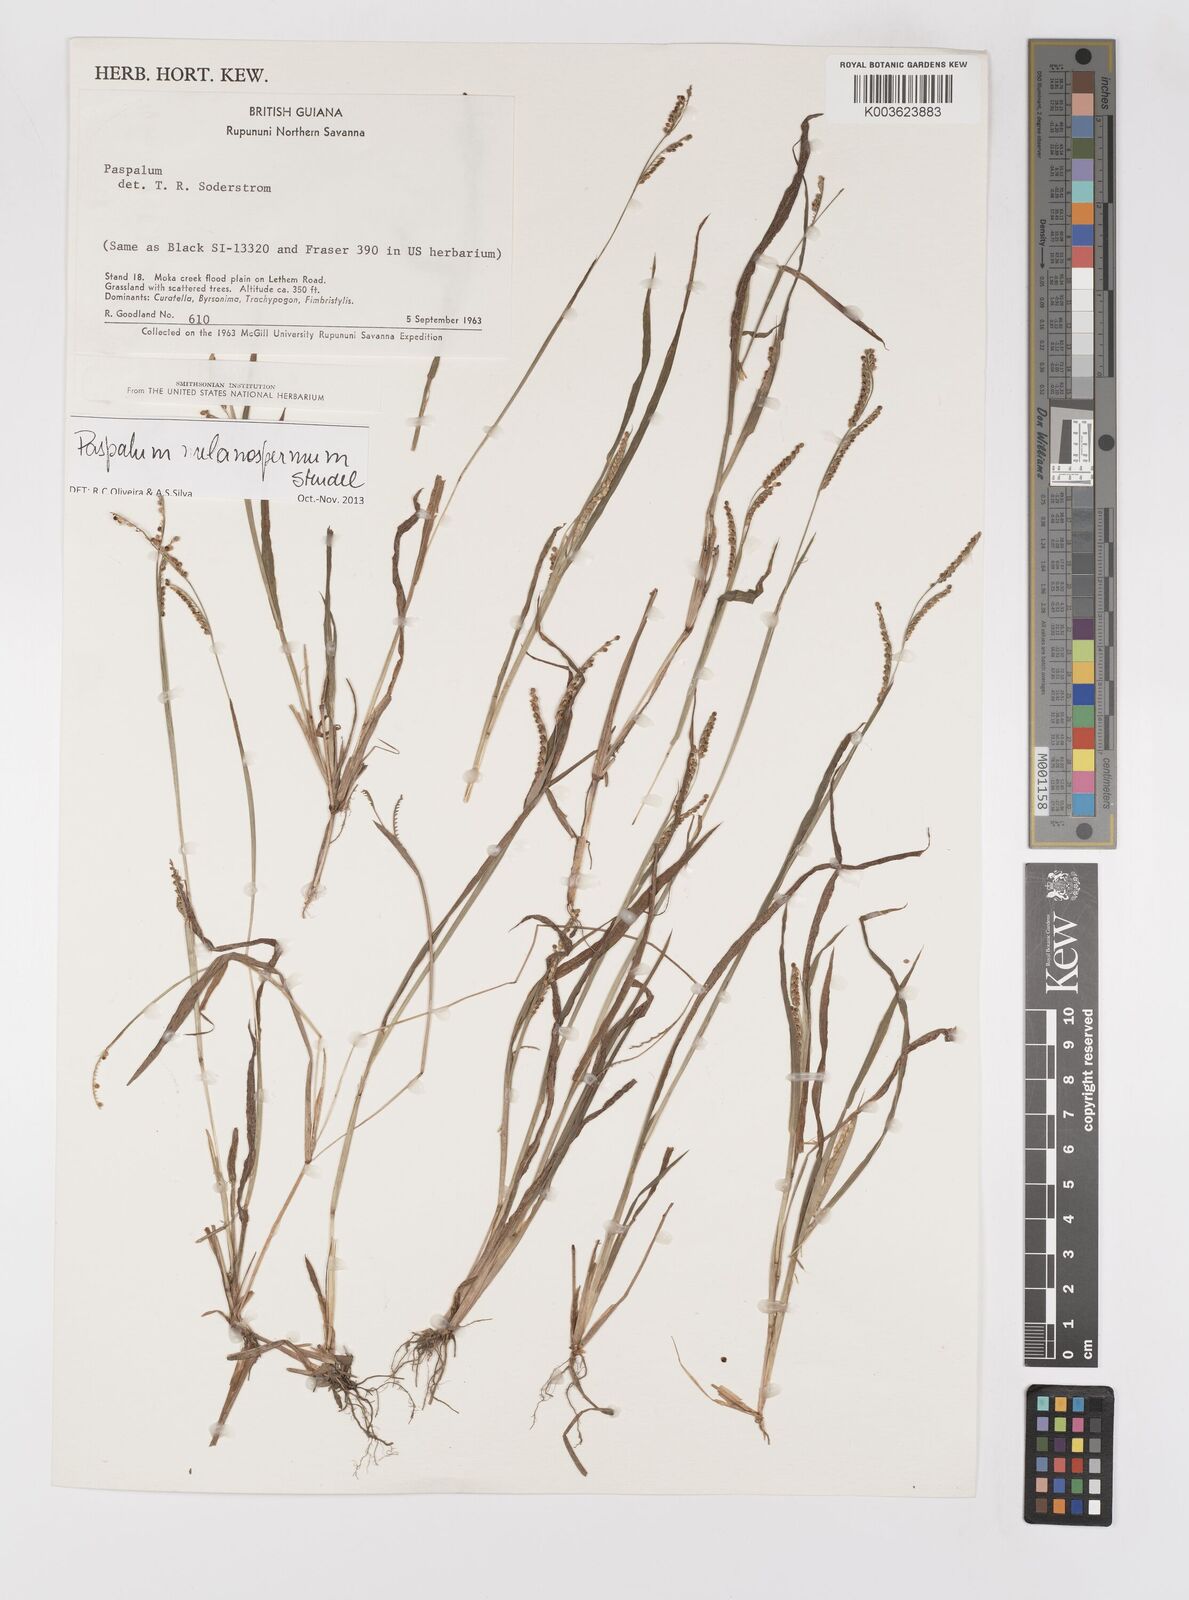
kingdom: Plantae
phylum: Tracheophyta
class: Liliopsida
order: Poales
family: Poaceae
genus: Paspalum
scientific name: Paspalum melanospermum
